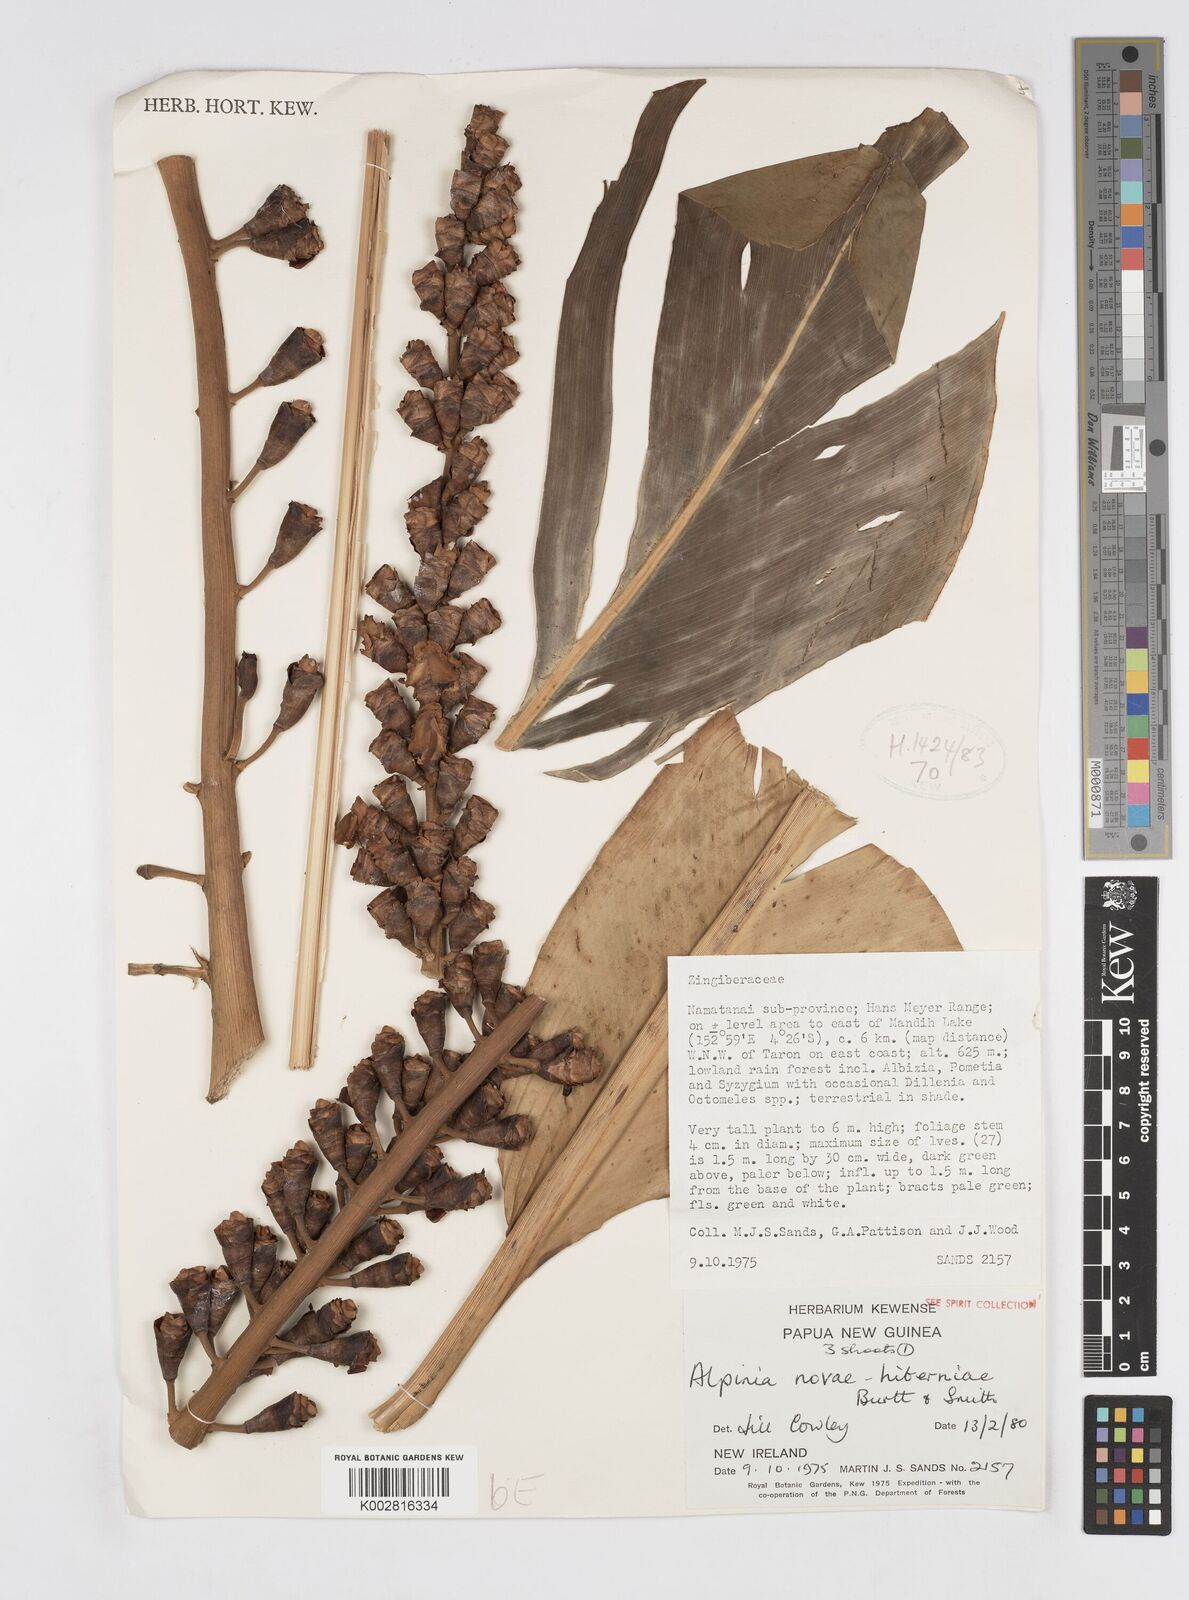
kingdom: Plantae
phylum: Tracheophyta
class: Liliopsida
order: Zingiberales
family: Zingiberaceae
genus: Alpinia
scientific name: Alpinia novae-hiberniae
